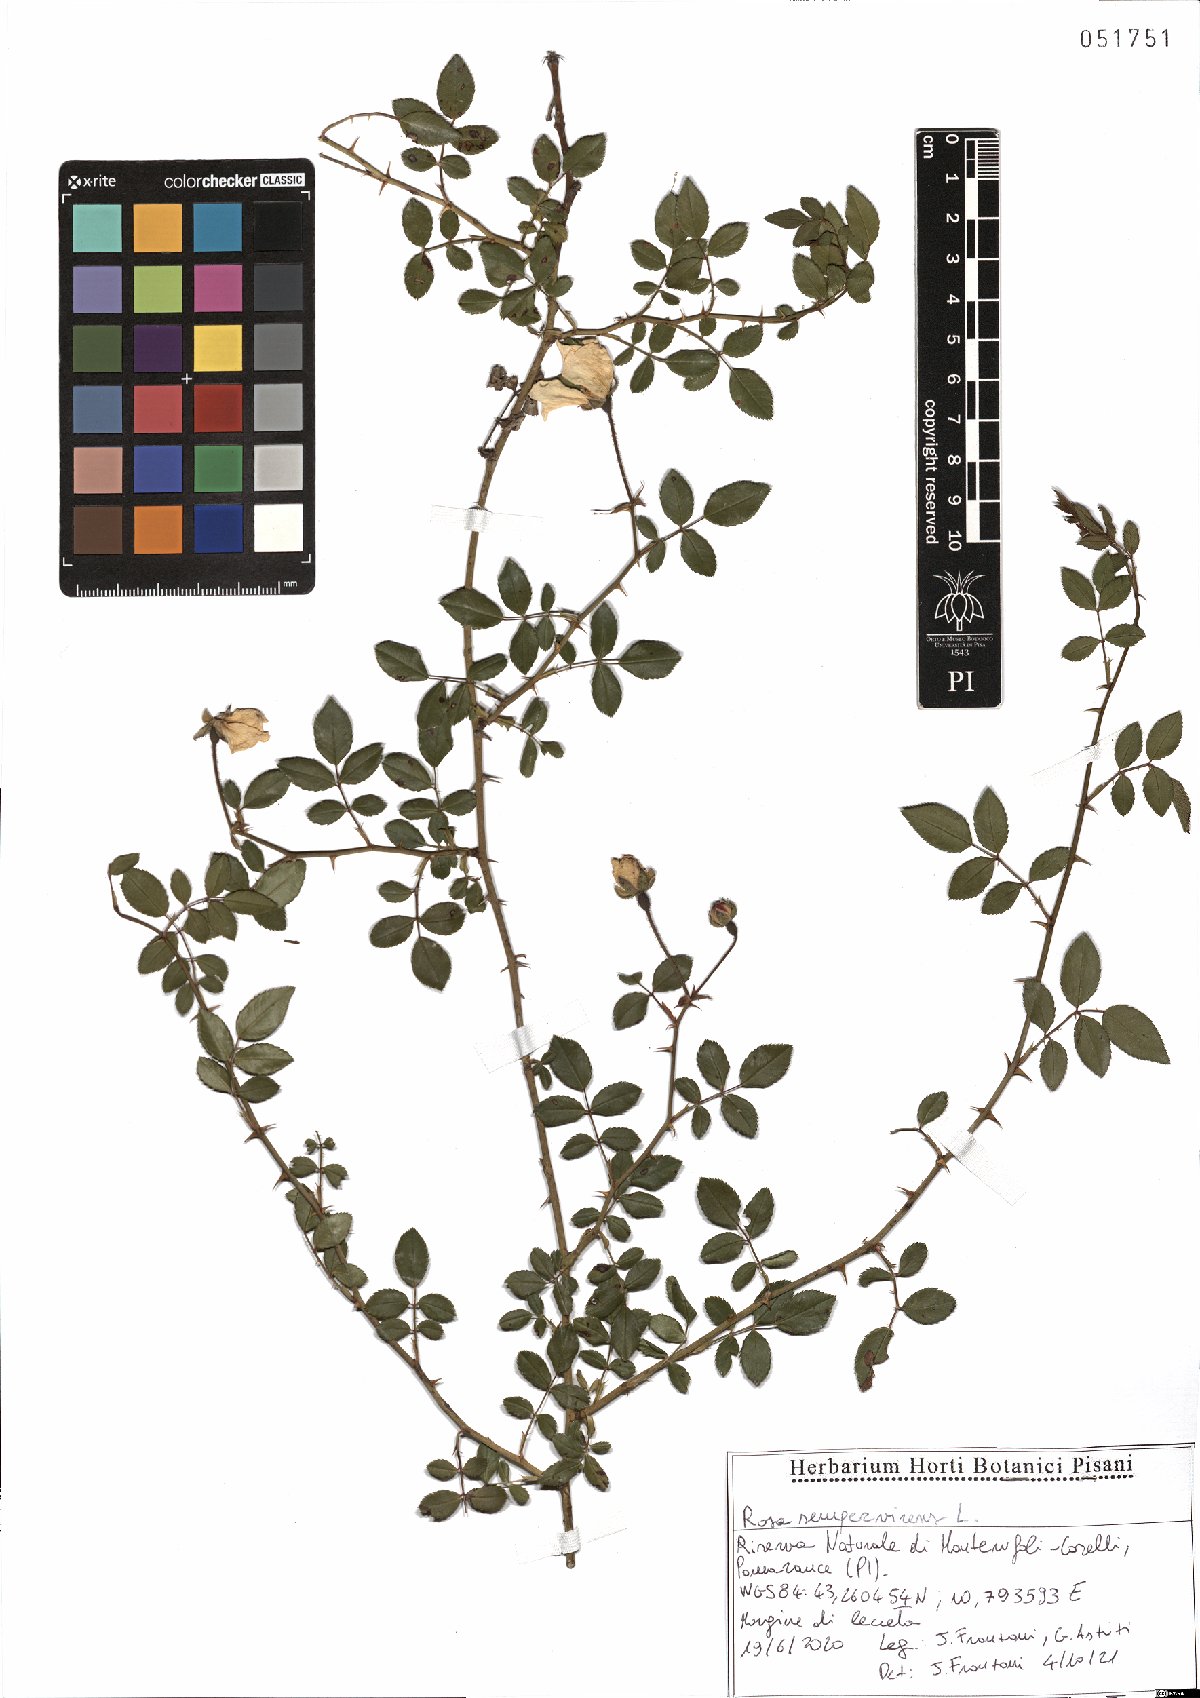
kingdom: Plantae
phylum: Tracheophyta
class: Magnoliopsida
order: Rosales
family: Rosaceae
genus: Rosa
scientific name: Rosa sempervirens
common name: Evergreen rose
